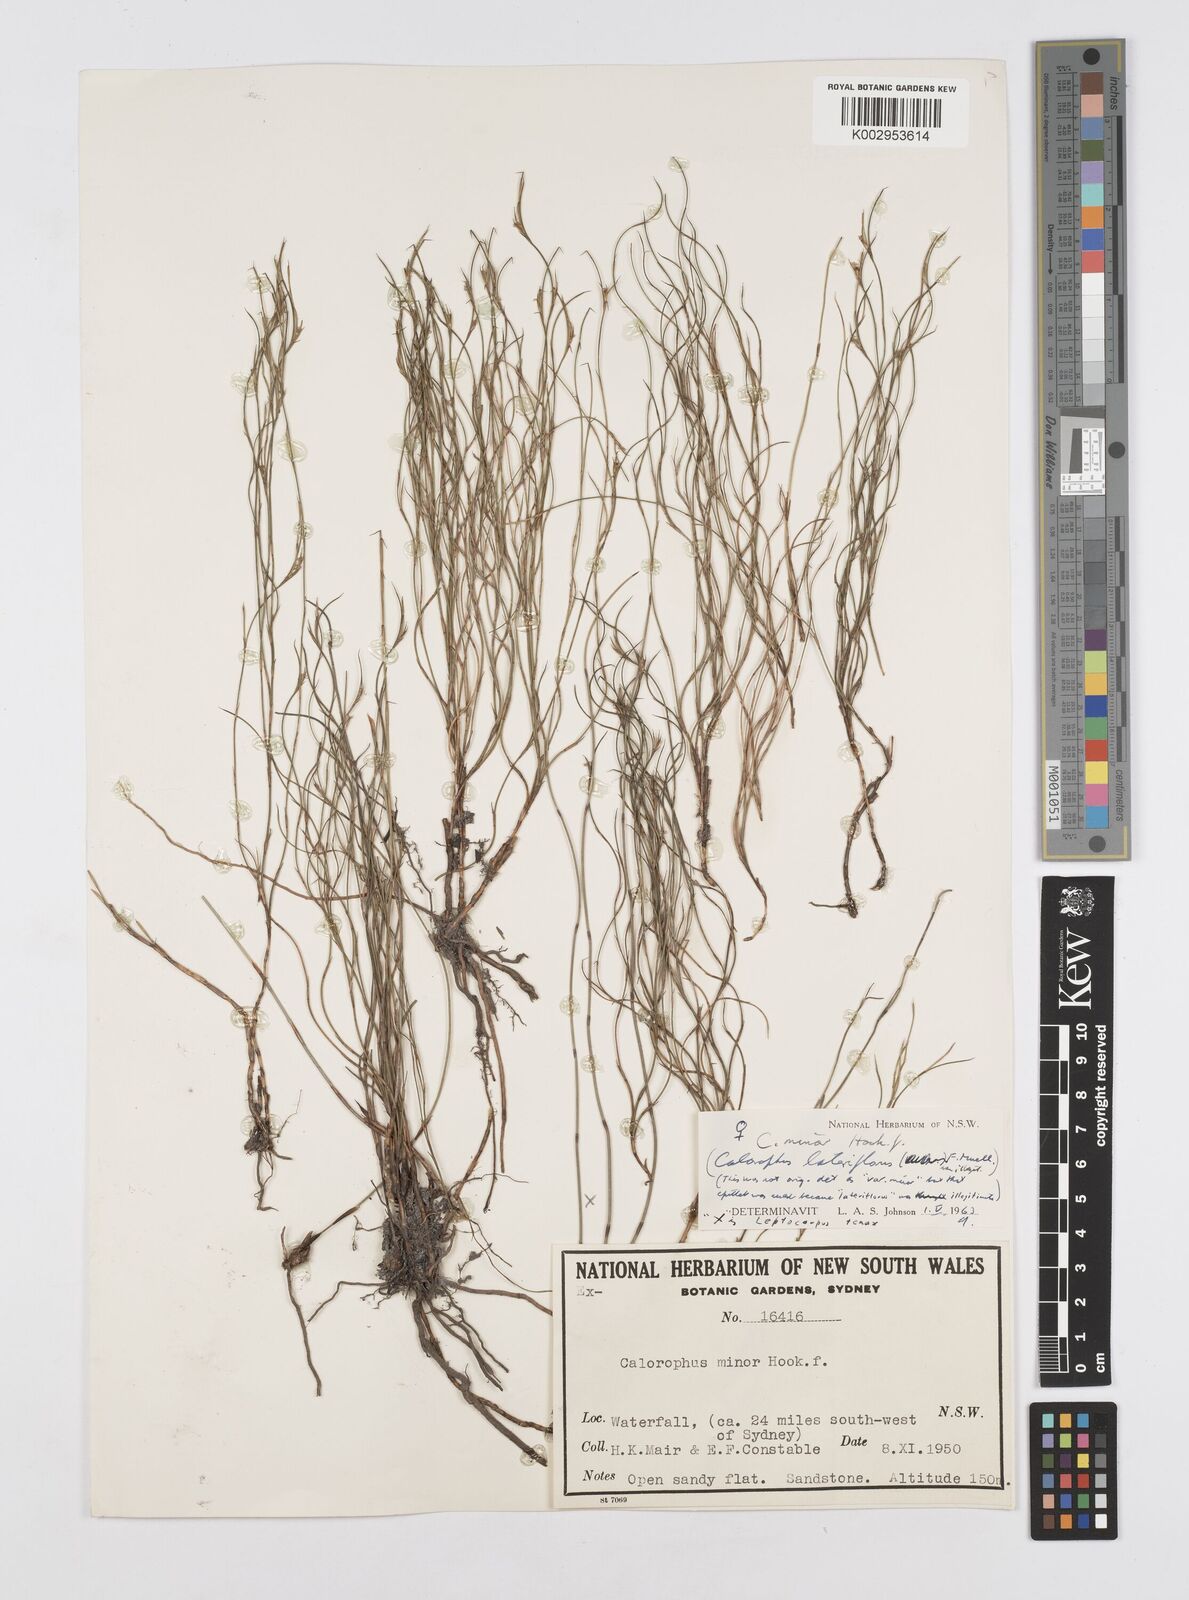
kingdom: Plantae
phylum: Tracheophyta
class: Liliopsida
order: Poales
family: Restionaceae
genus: Empodisma
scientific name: Empodisma minus
